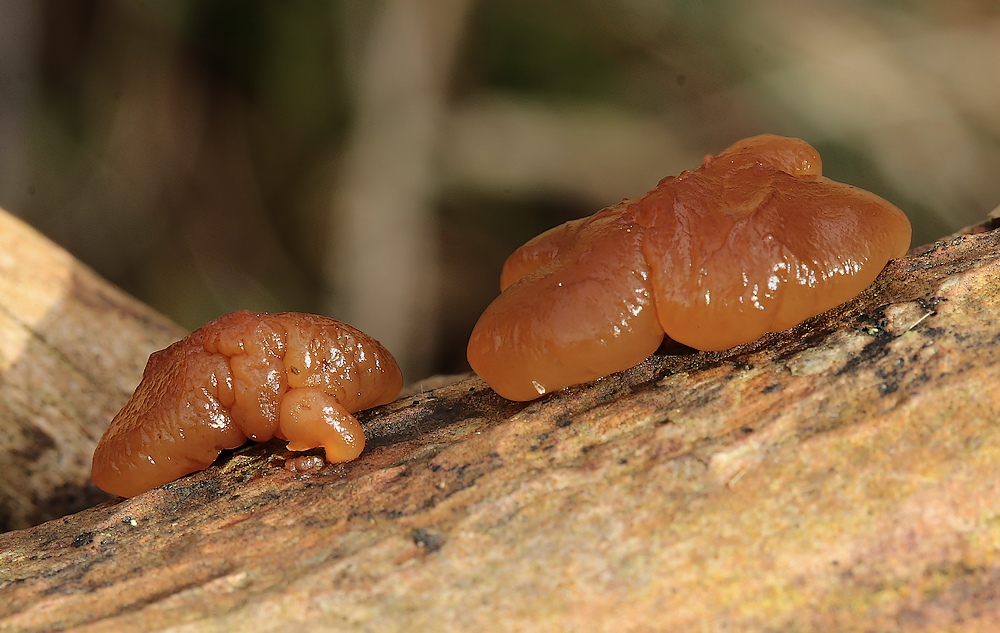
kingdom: Fungi
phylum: Basidiomycota
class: Agaricomycetes
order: Auriculariales
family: Auriculariaceae
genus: Exidia
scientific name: Exidia saccharina
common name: kandis-bævretop
